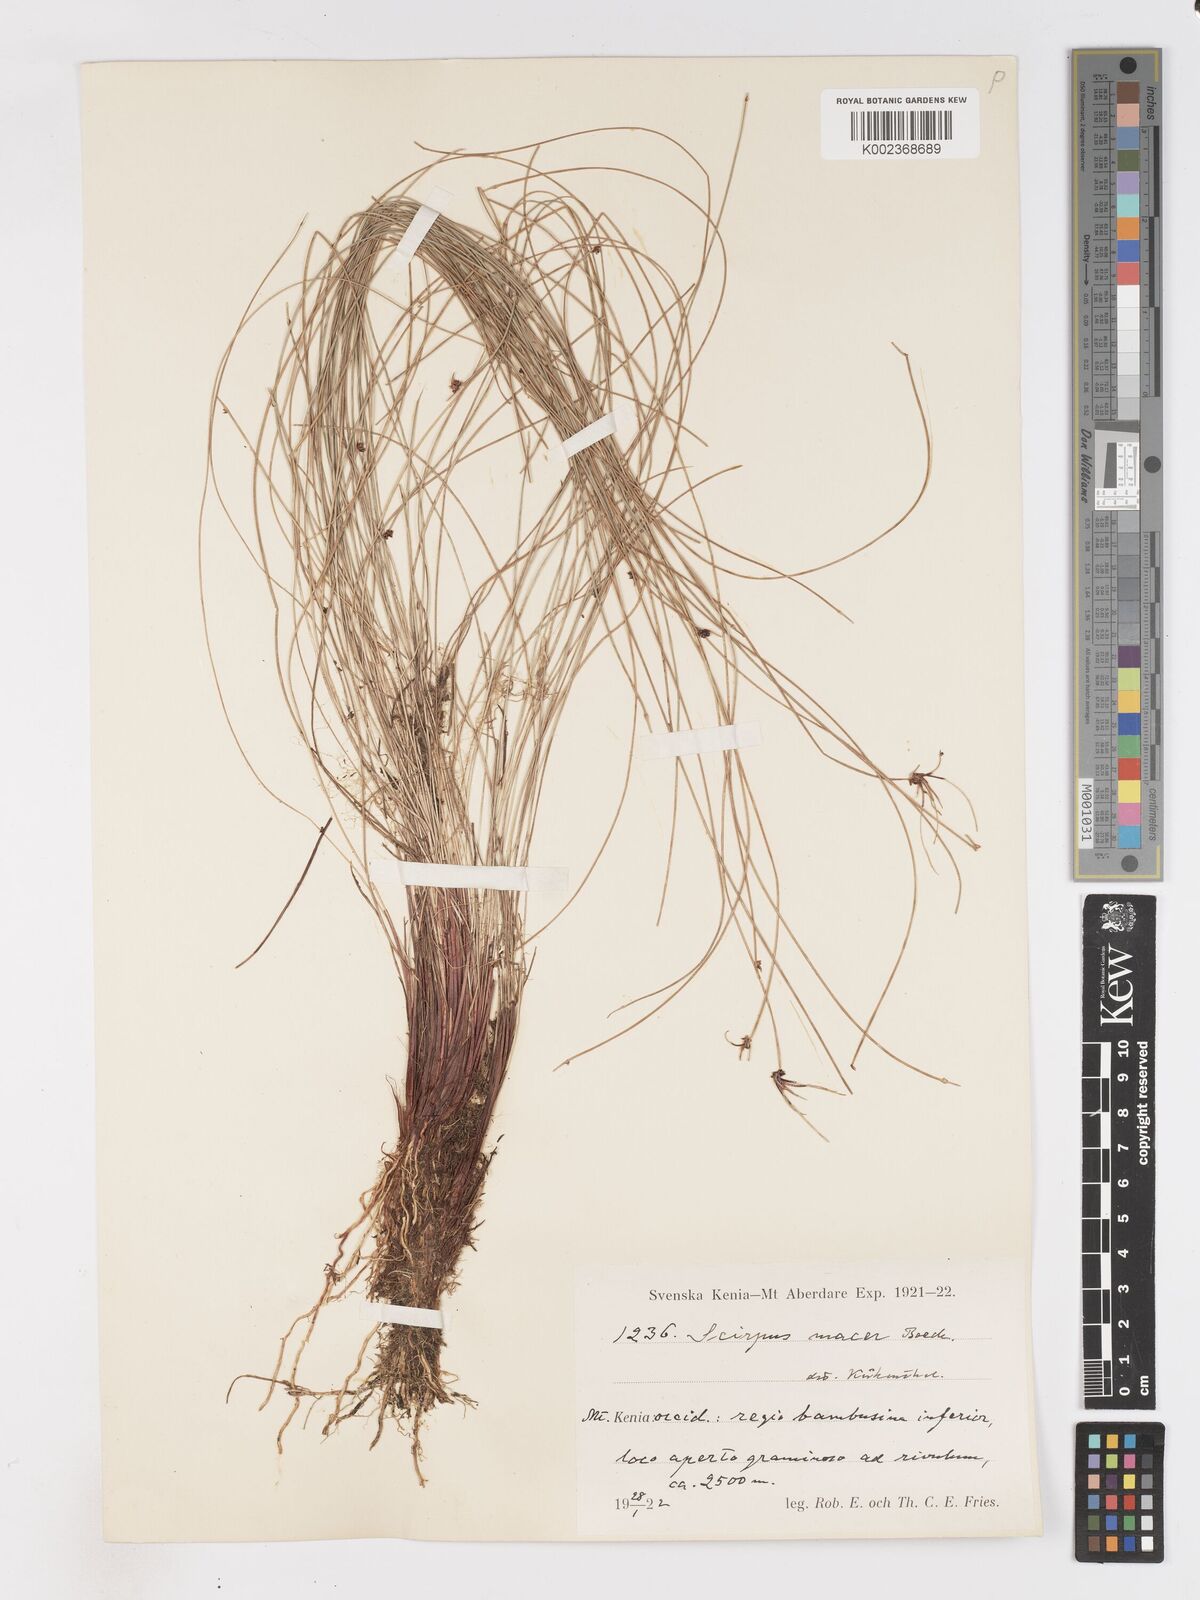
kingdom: Plantae
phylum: Tracheophyta
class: Liliopsida
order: Poales
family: Cyperaceae
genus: Isolepis
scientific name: Isolepis costata
